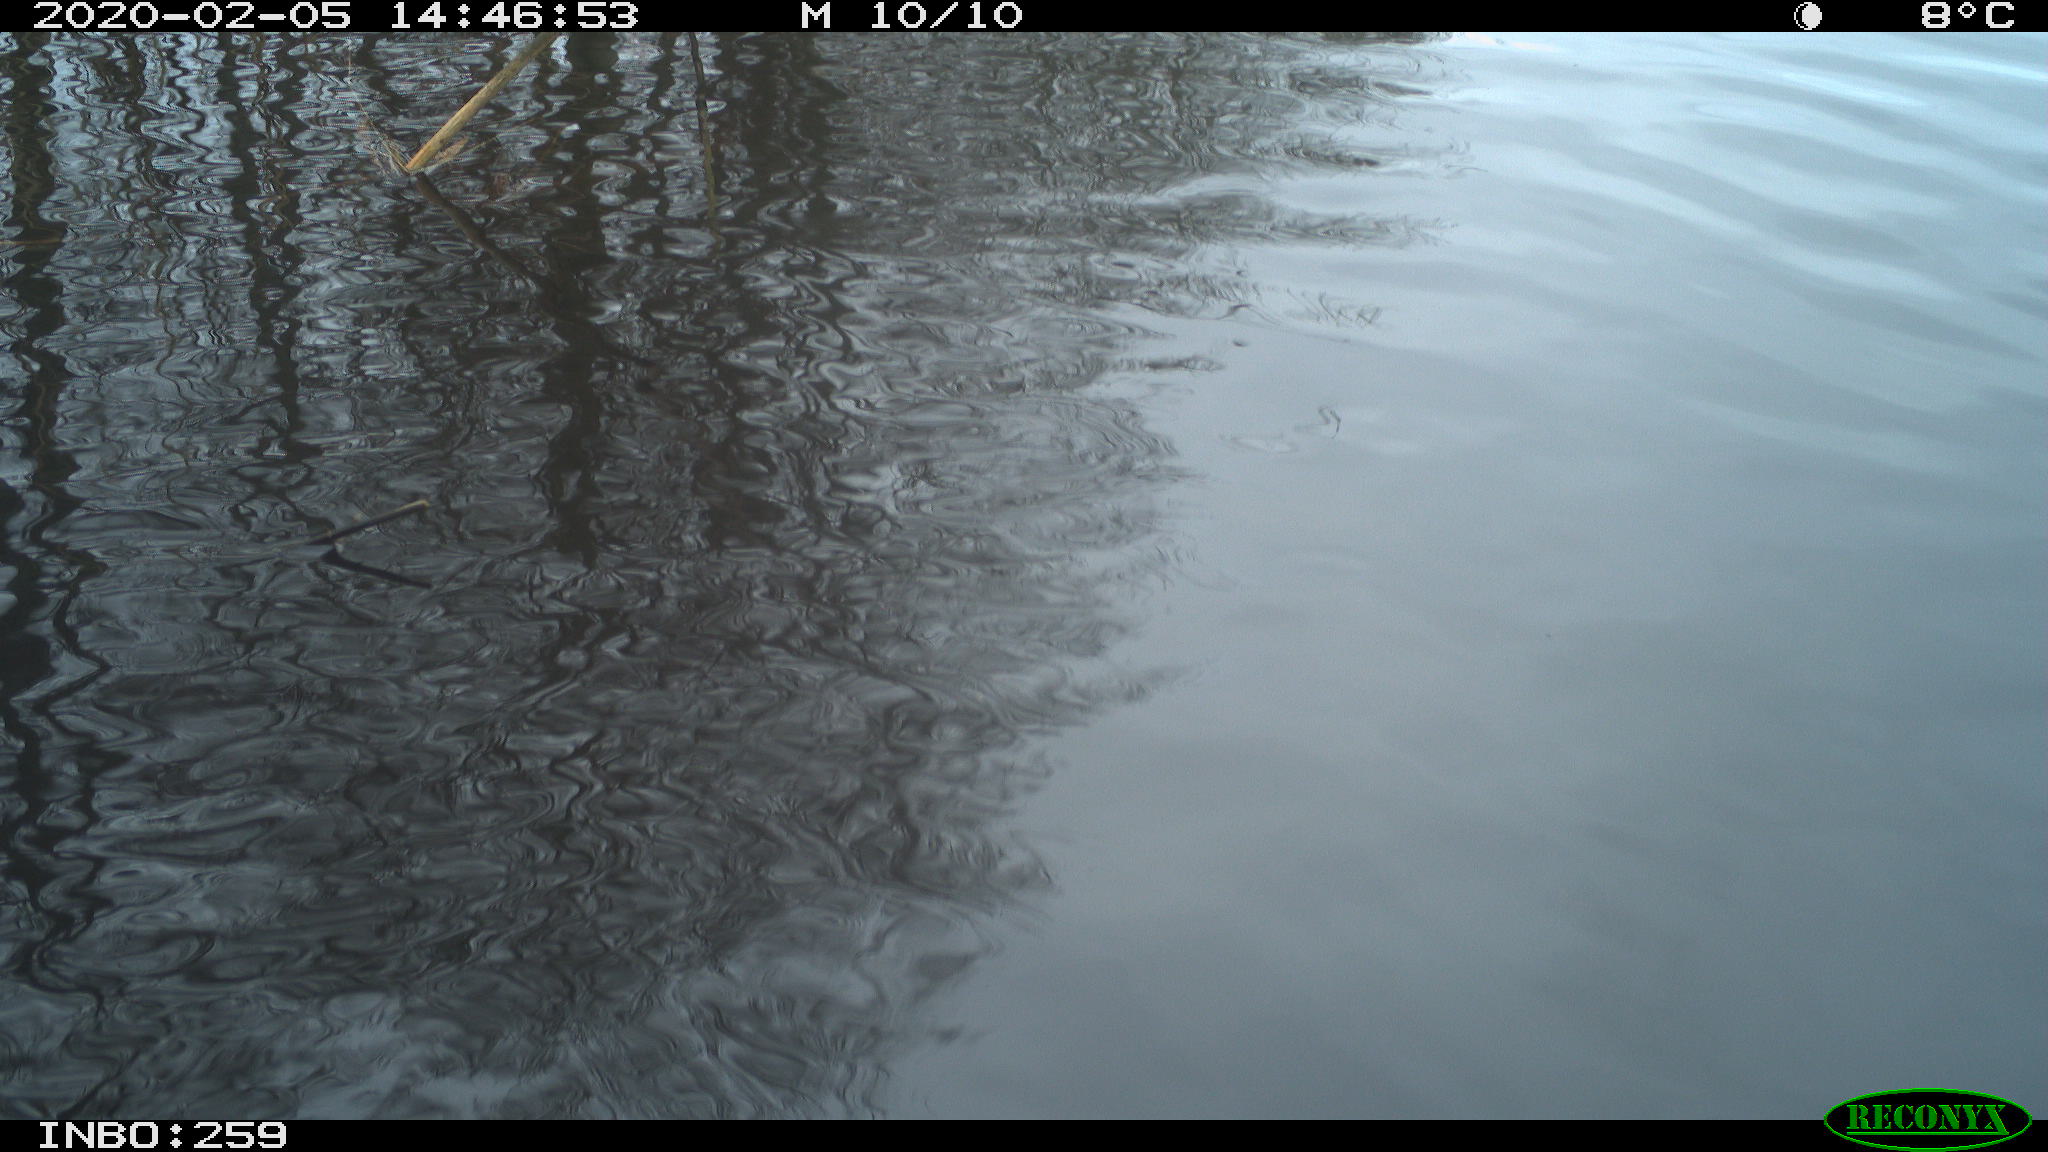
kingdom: Animalia
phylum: Chordata
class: Aves
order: Gruiformes
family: Rallidae
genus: Gallinula
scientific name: Gallinula chloropus
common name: Common moorhen
